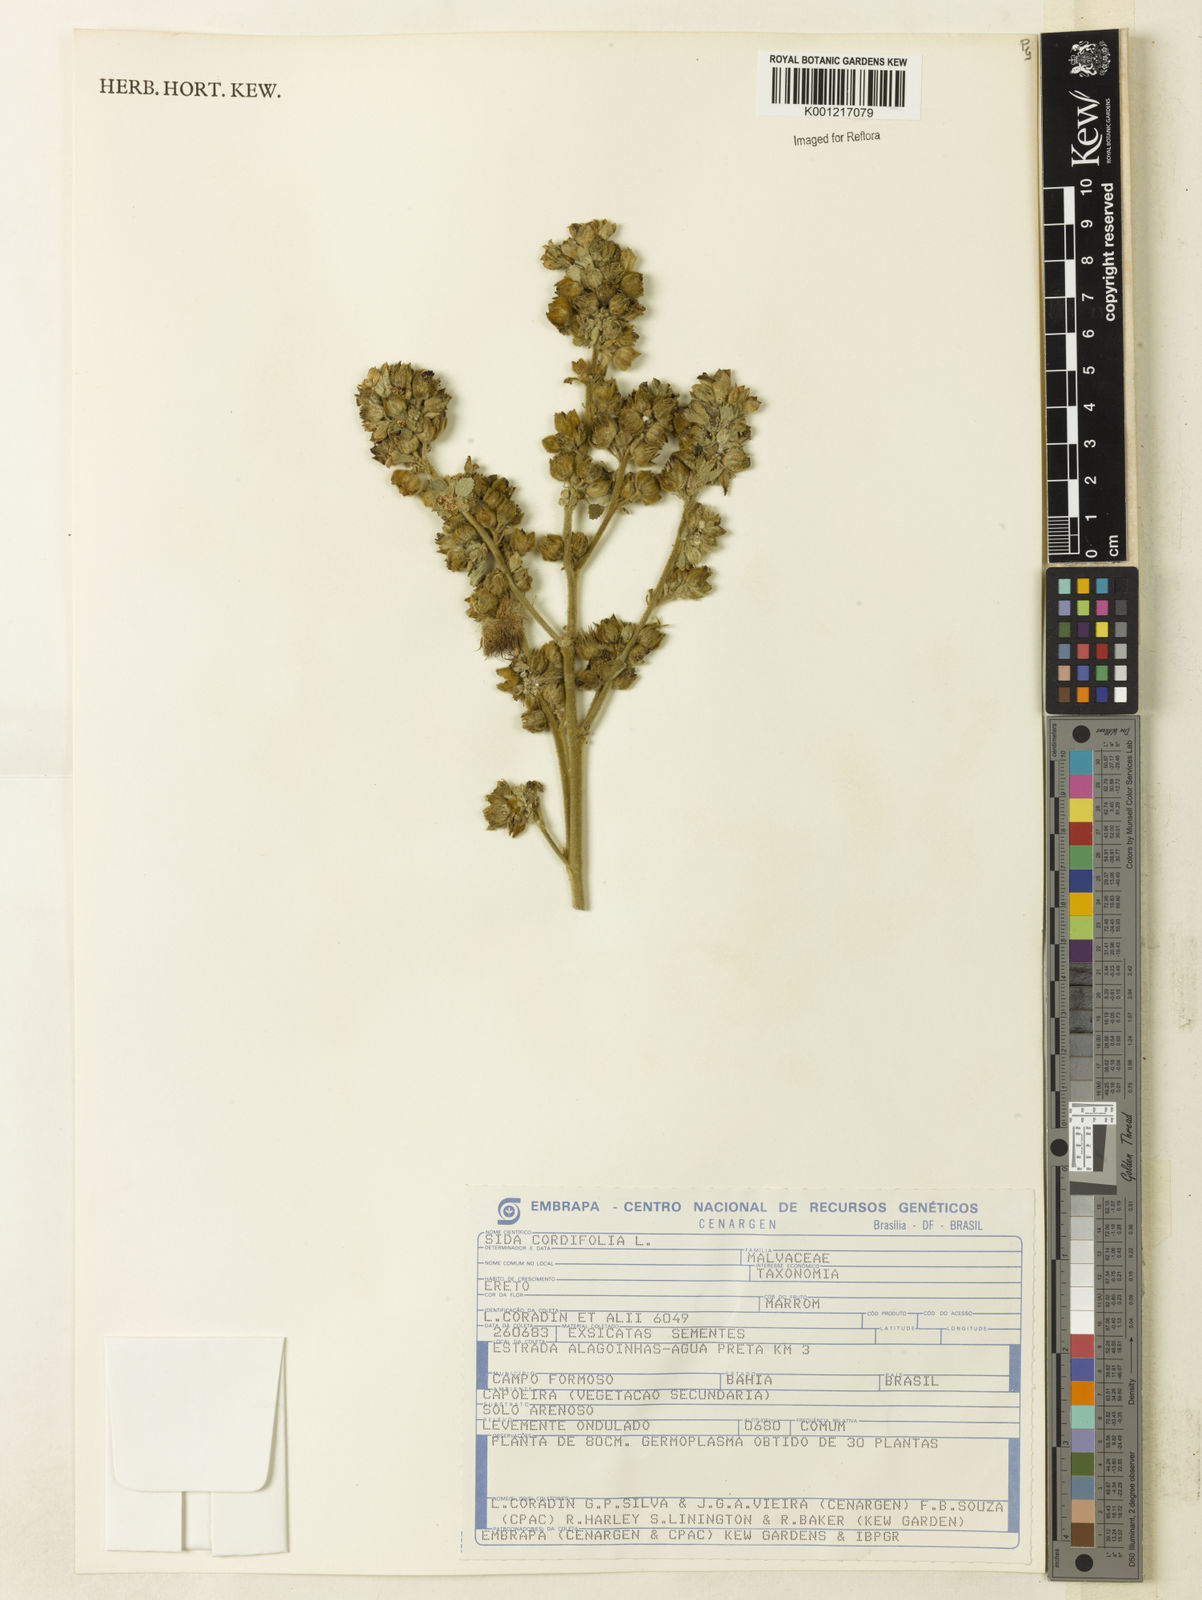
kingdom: Plantae
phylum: Tracheophyta
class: Magnoliopsida
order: Malvales
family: Malvaceae
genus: Sida
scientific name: Sida cordifolia
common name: Ilima
